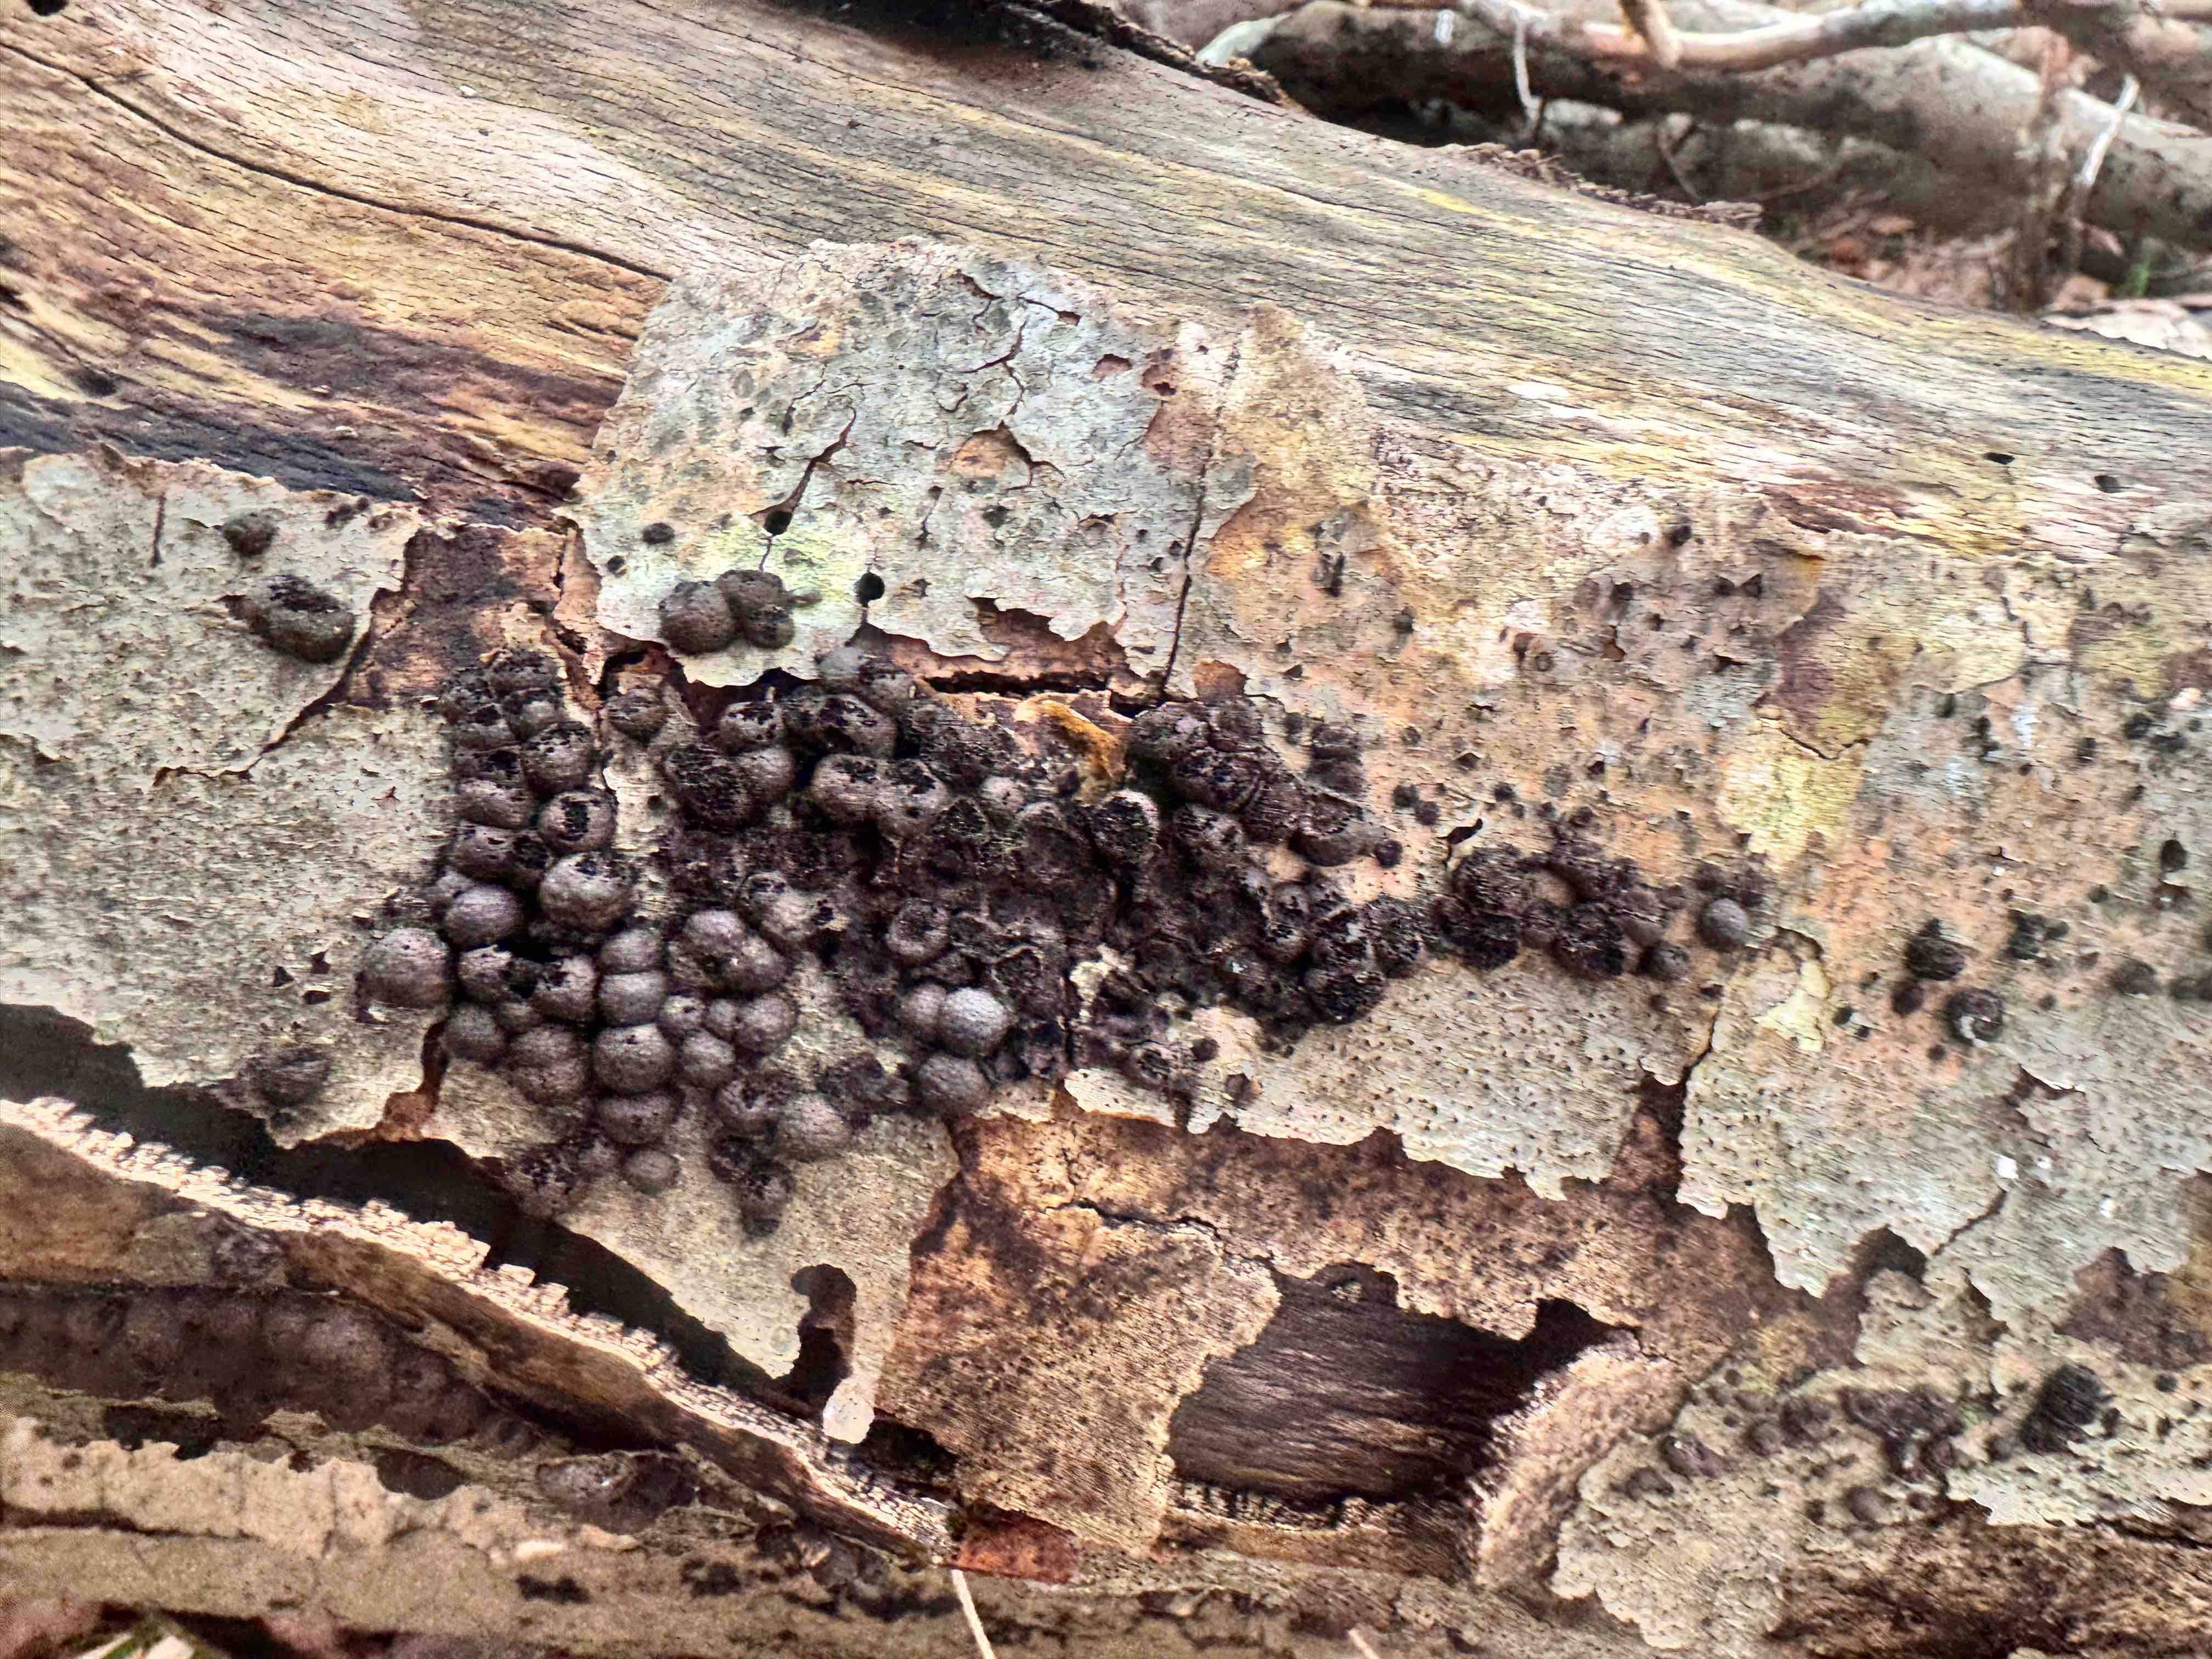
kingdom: Fungi
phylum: Ascomycota
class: Sordariomycetes
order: Xylariales
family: Hypoxylaceae
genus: Hypoxylon
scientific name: Hypoxylon fragiforme
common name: kuljordbær
